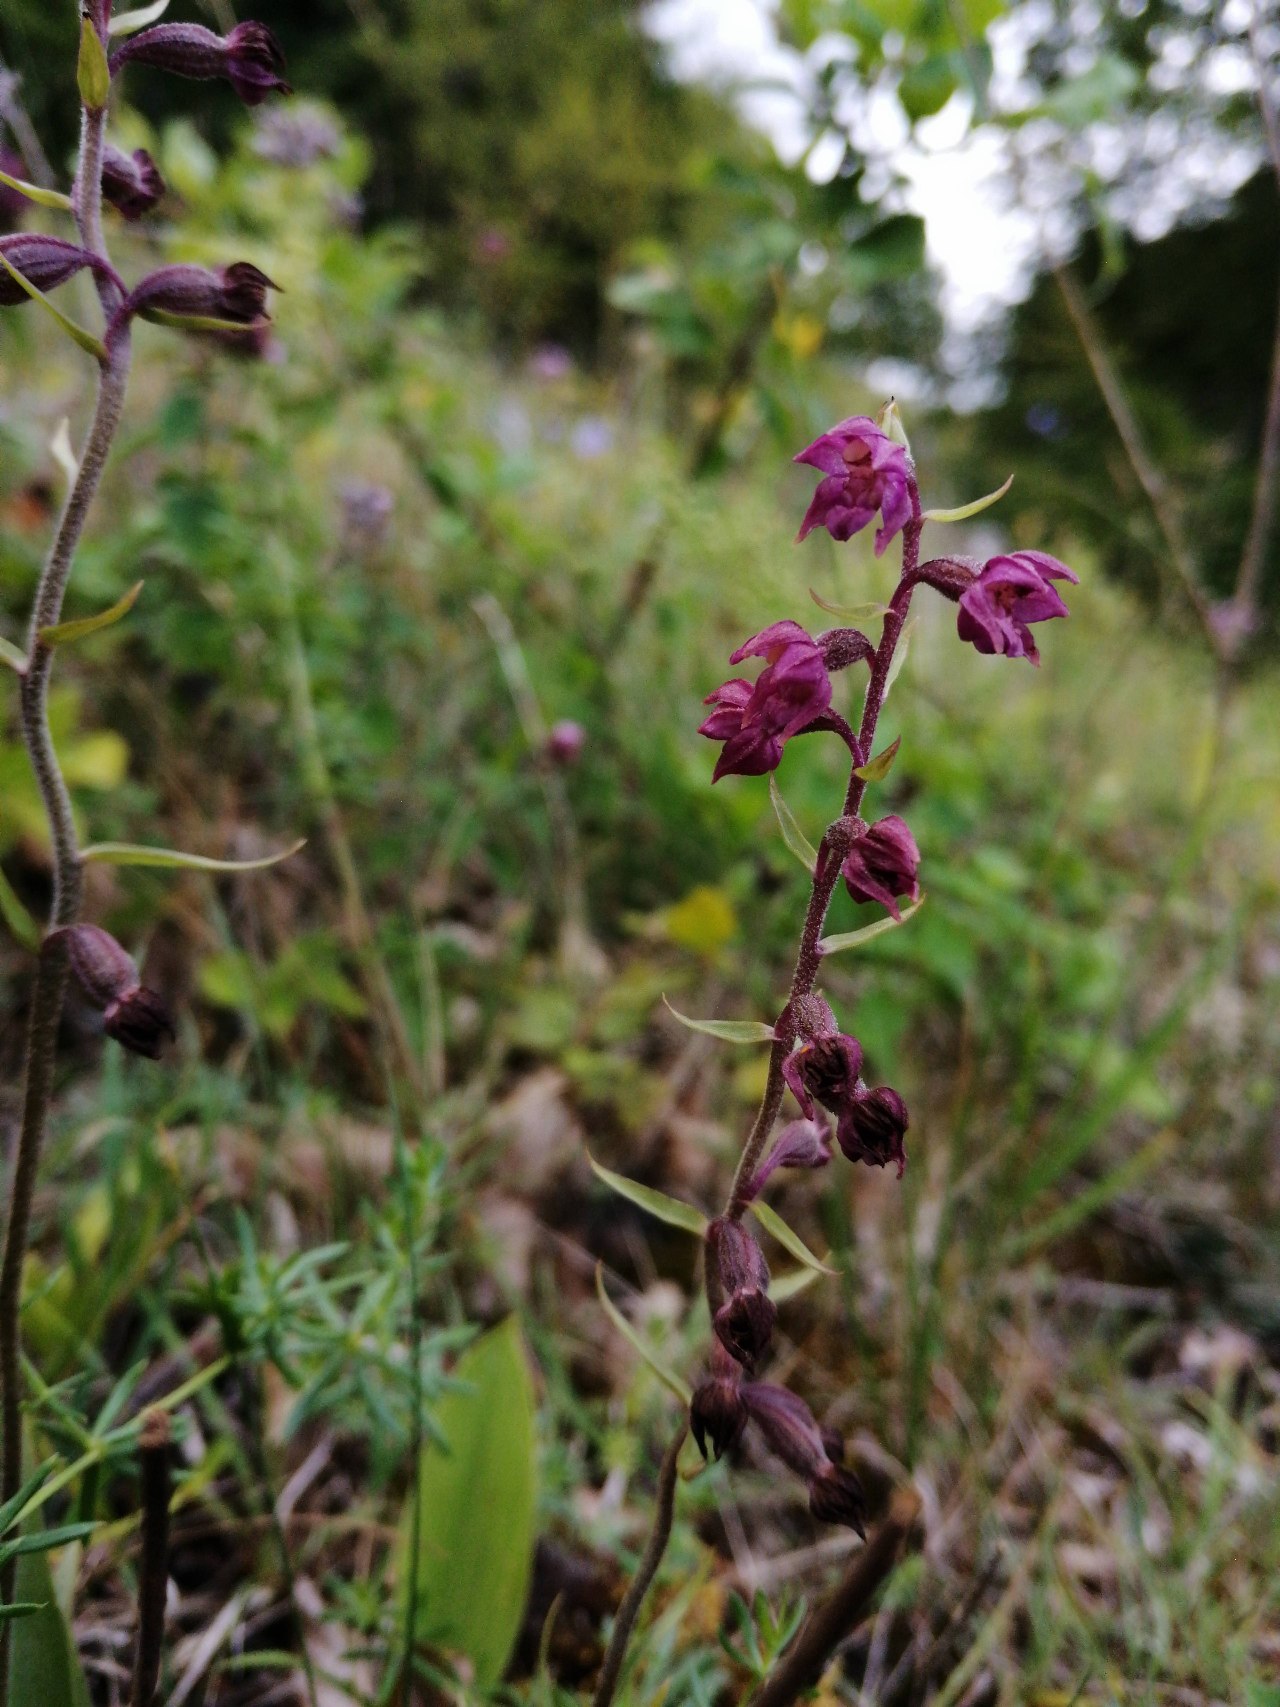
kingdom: Plantae
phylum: Tracheophyta
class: Liliopsida
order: Asparagales
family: Orchidaceae
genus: Epipactis
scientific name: Epipactis atrorubens
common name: Rød hullæbe
